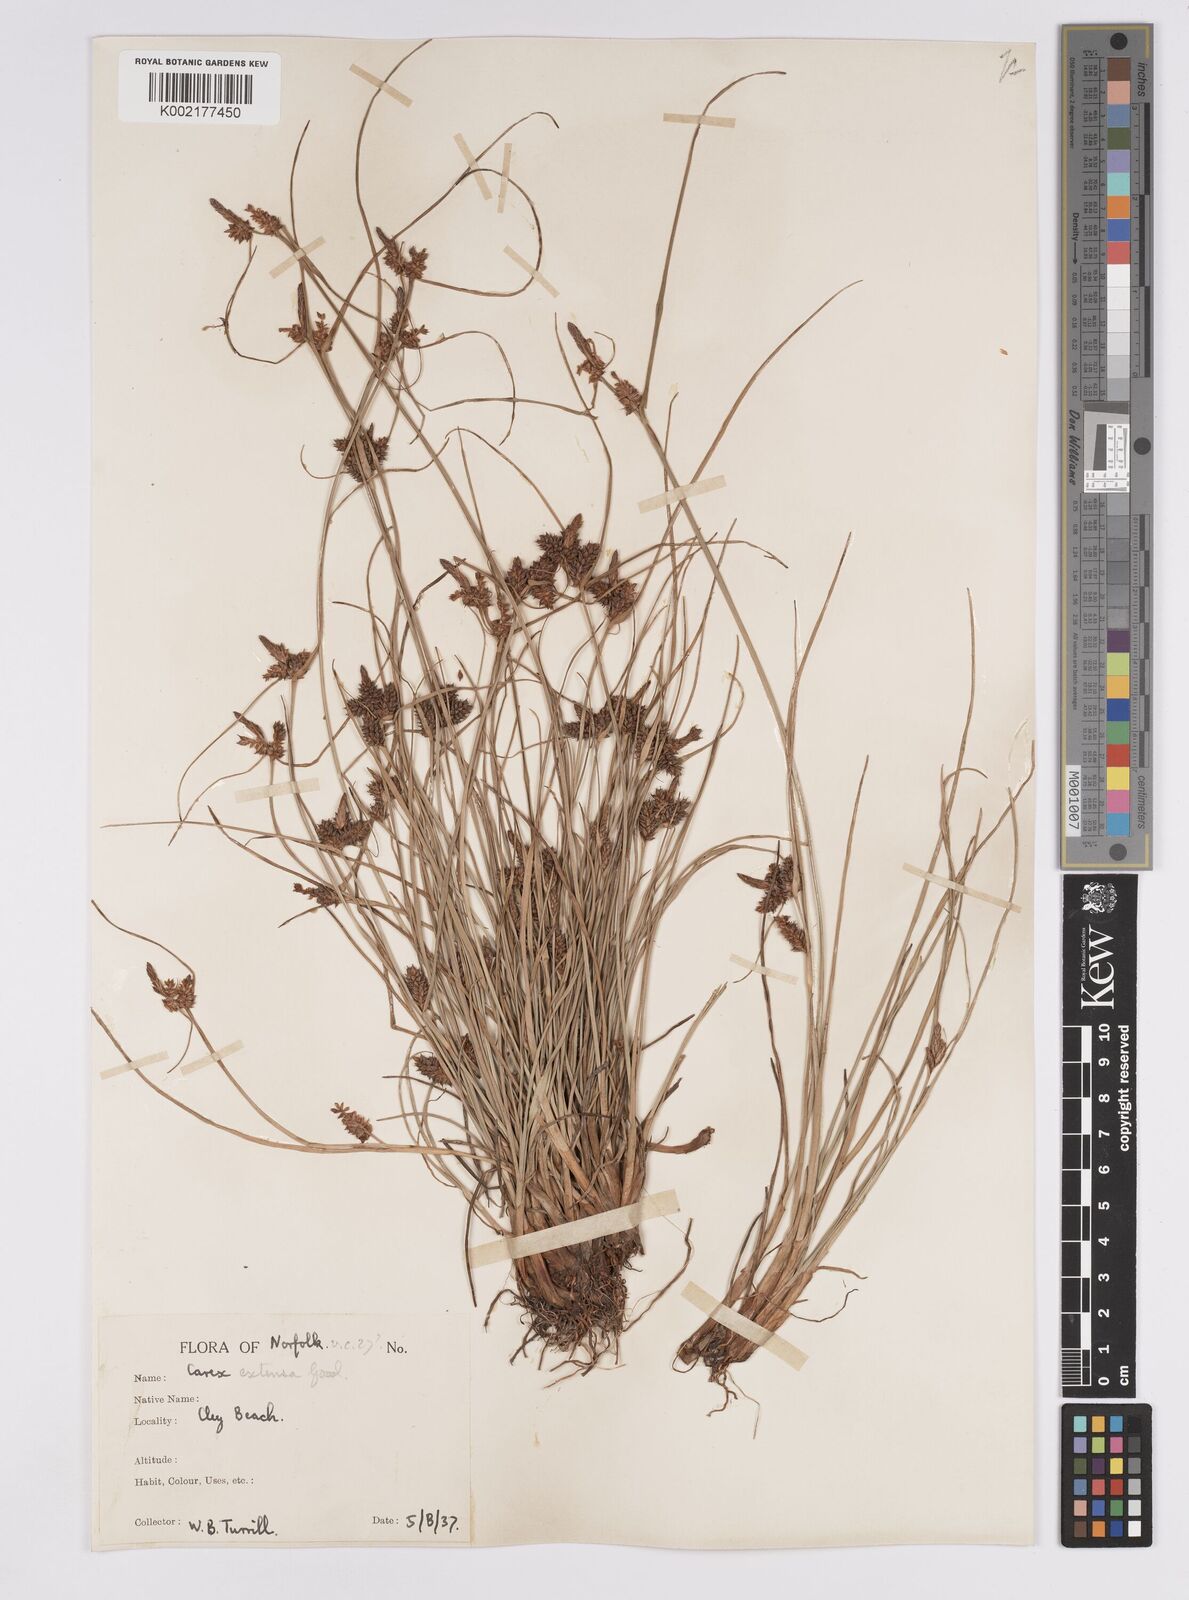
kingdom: Plantae
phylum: Tracheophyta
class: Liliopsida
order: Poales
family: Cyperaceae
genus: Carex
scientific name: Carex extensa
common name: Long-bracted sedge
